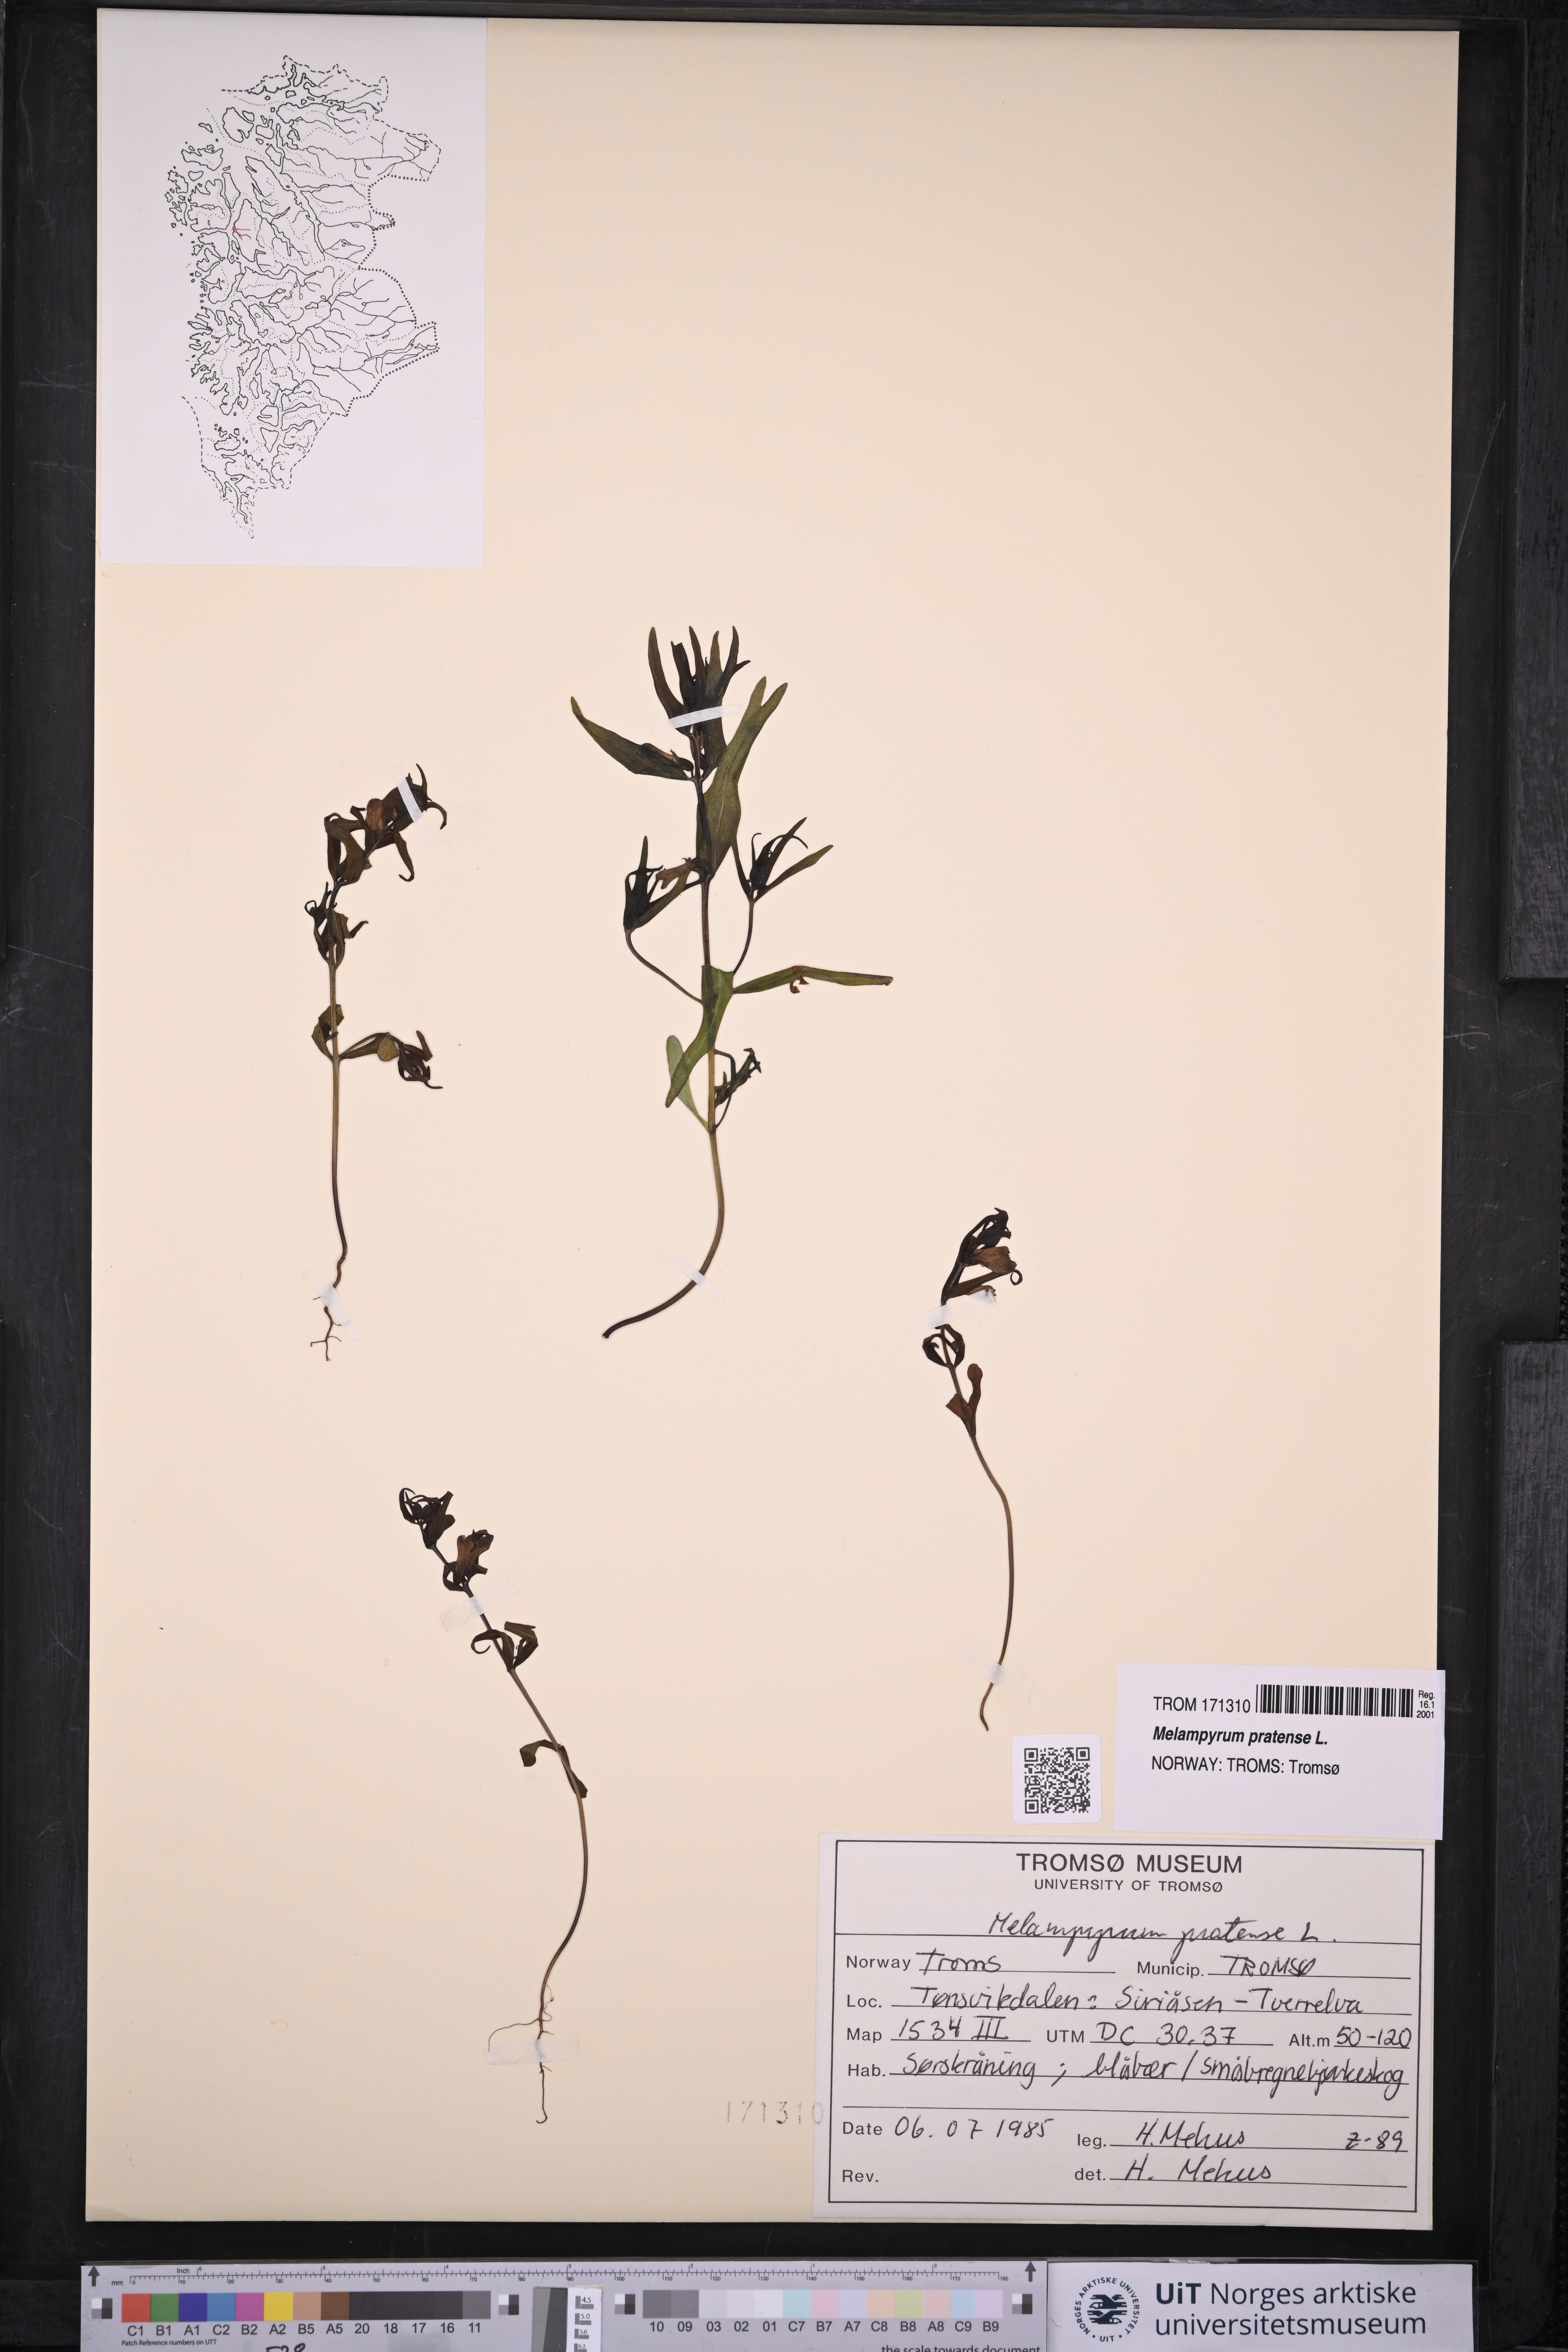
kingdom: Plantae
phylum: Tracheophyta
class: Magnoliopsida
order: Lamiales
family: Orobanchaceae
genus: Melampyrum
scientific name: Melampyrum pratense
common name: Common cow-wheat
